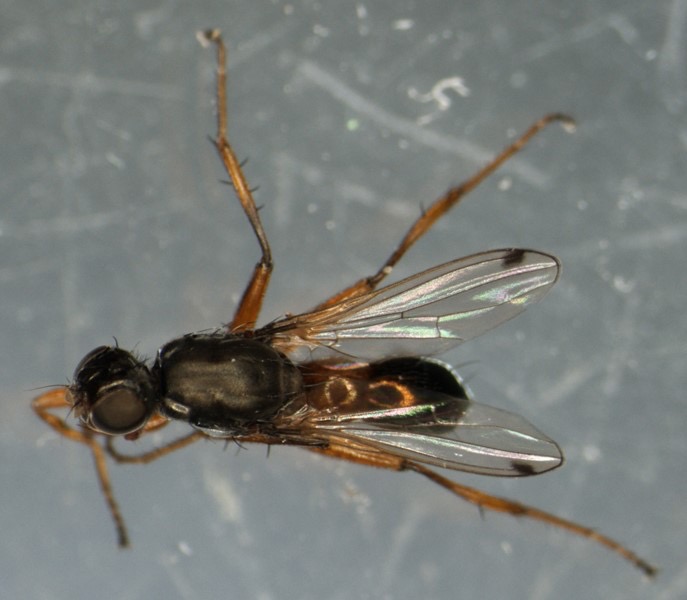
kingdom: Animalia
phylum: Arthropoda
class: Insecta
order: Diptera
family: Sepsidae
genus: Sepsis
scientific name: Sepsis punctum
